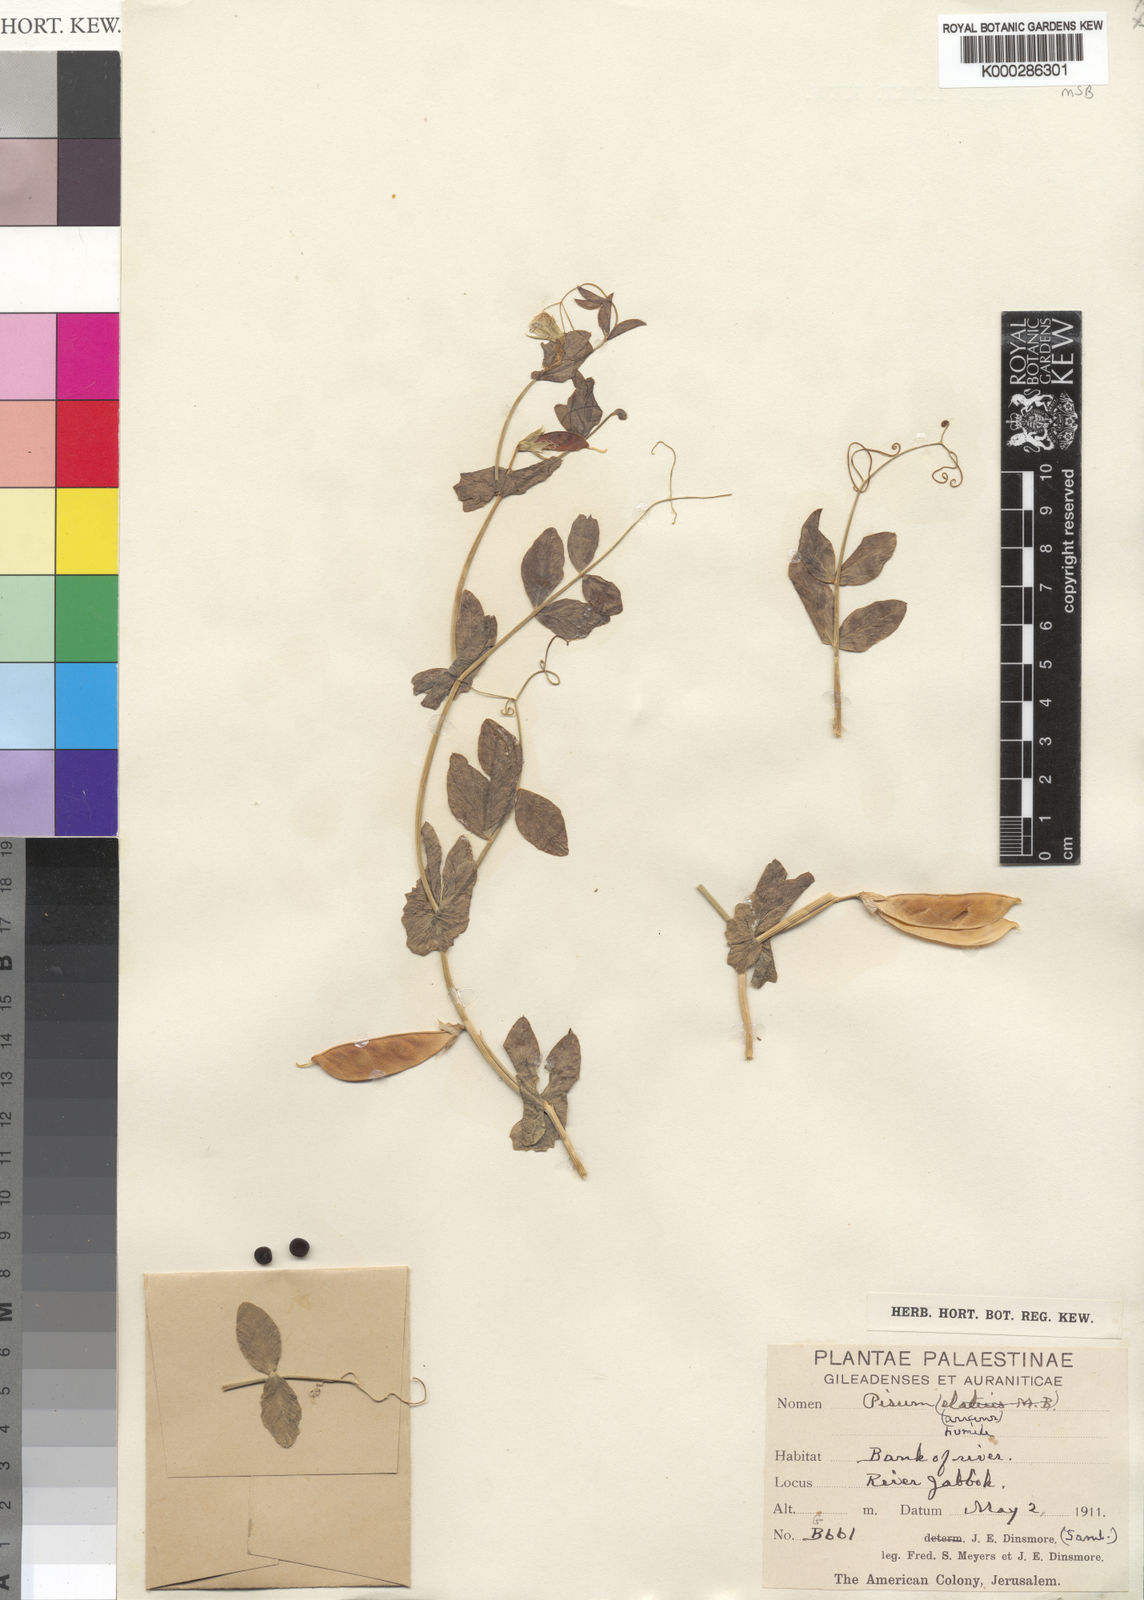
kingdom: Plantae
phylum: Tracheophyta
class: Magnoliopsida
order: Fabales
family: Fabaceae
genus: Lathyrus
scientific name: Lathyrus oleraceus
